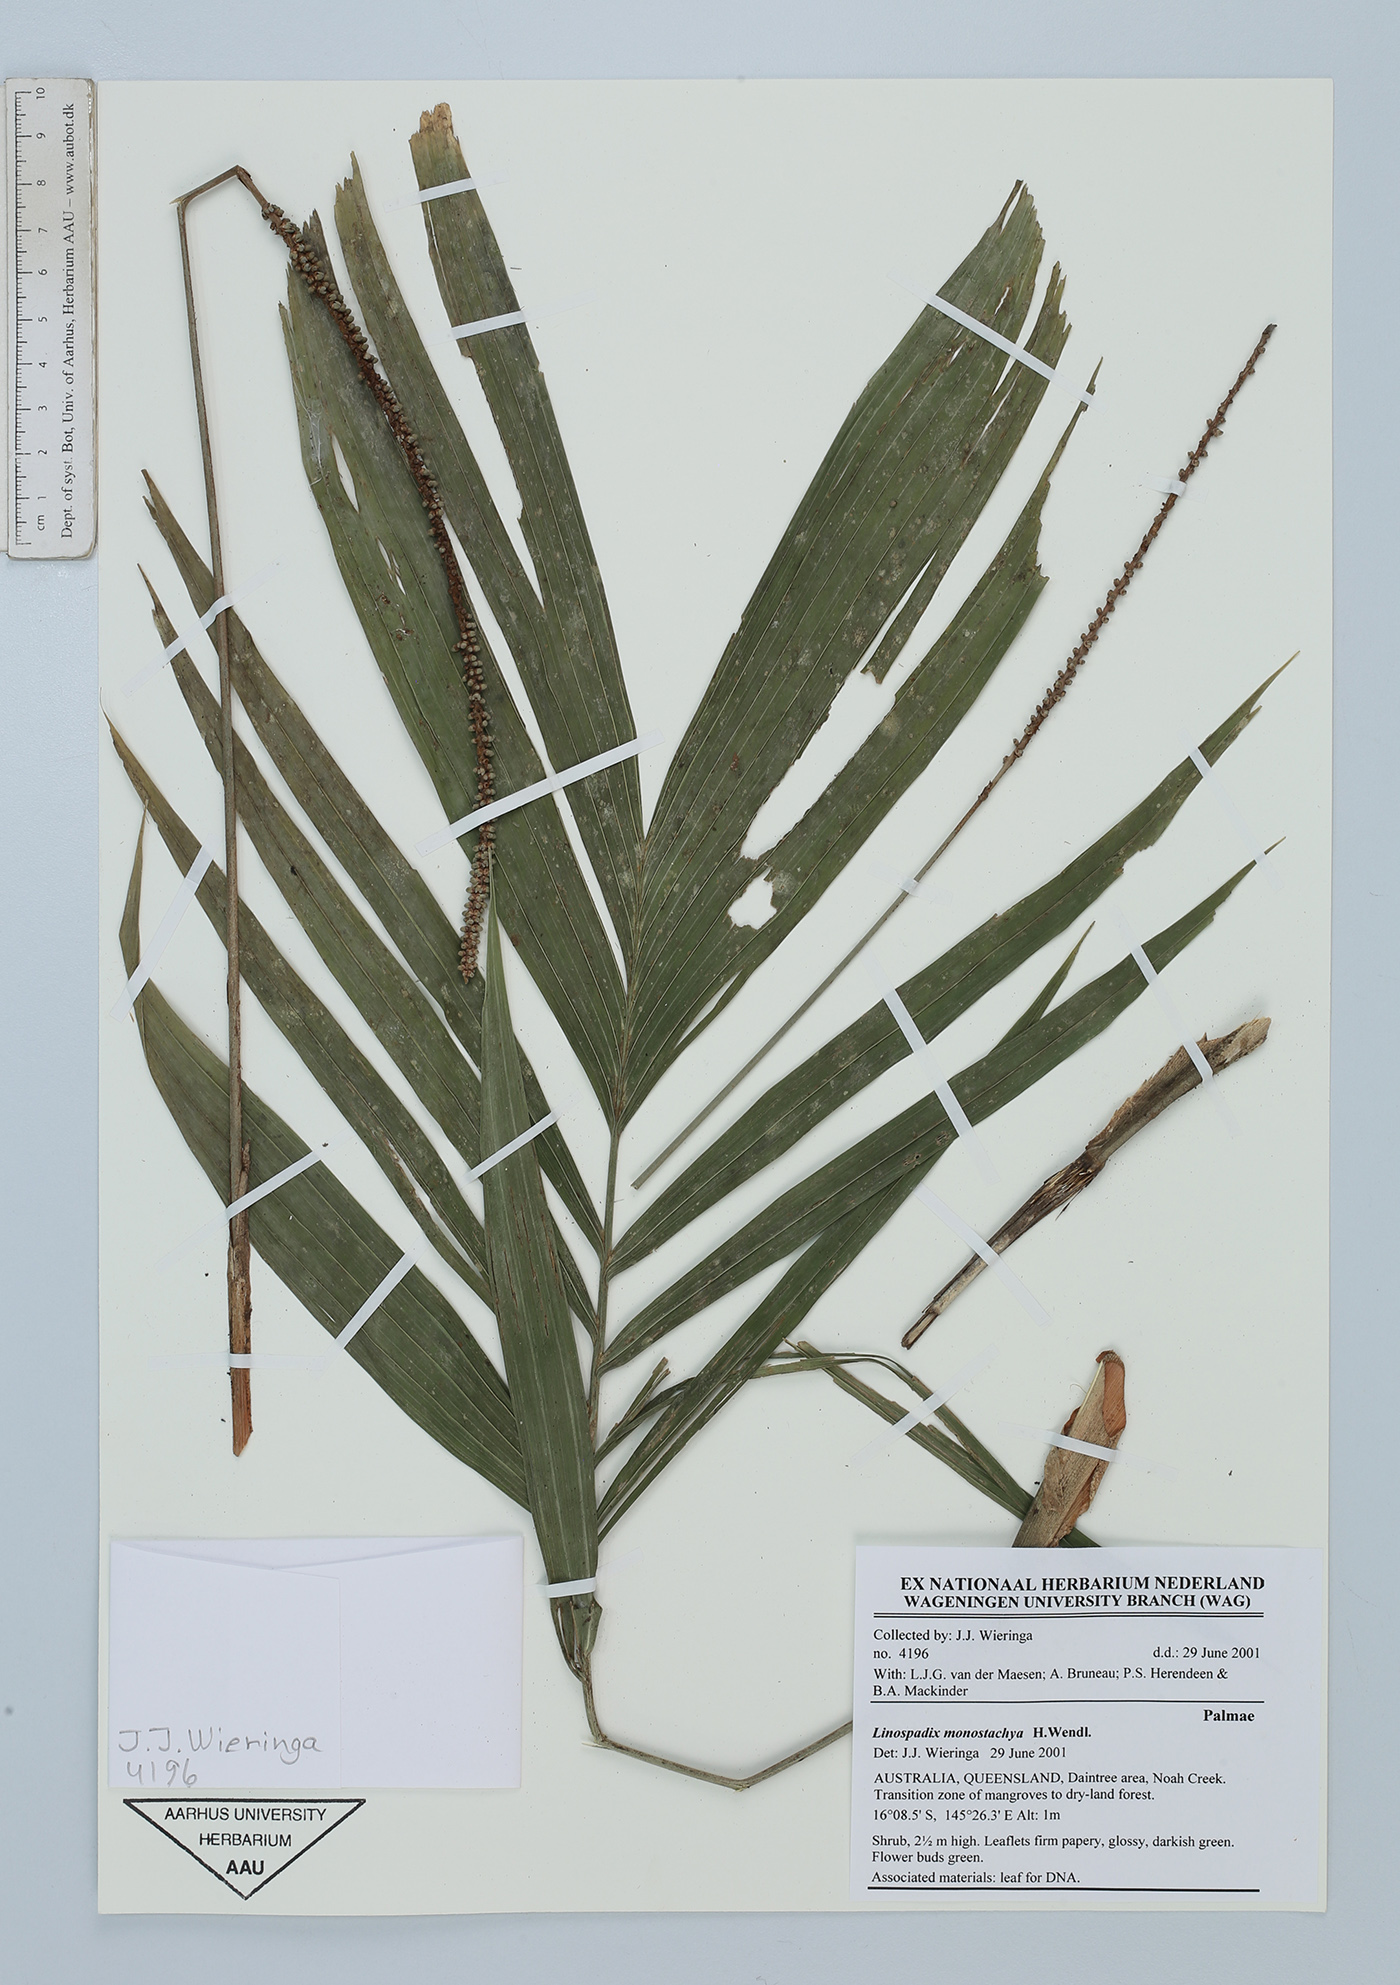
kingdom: Plantae
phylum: Tracheophyta
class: Liliopsida
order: Arecales
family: Arecaceae
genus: Linospadix
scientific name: Linospadix monostachyus
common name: Walking-stick palm
